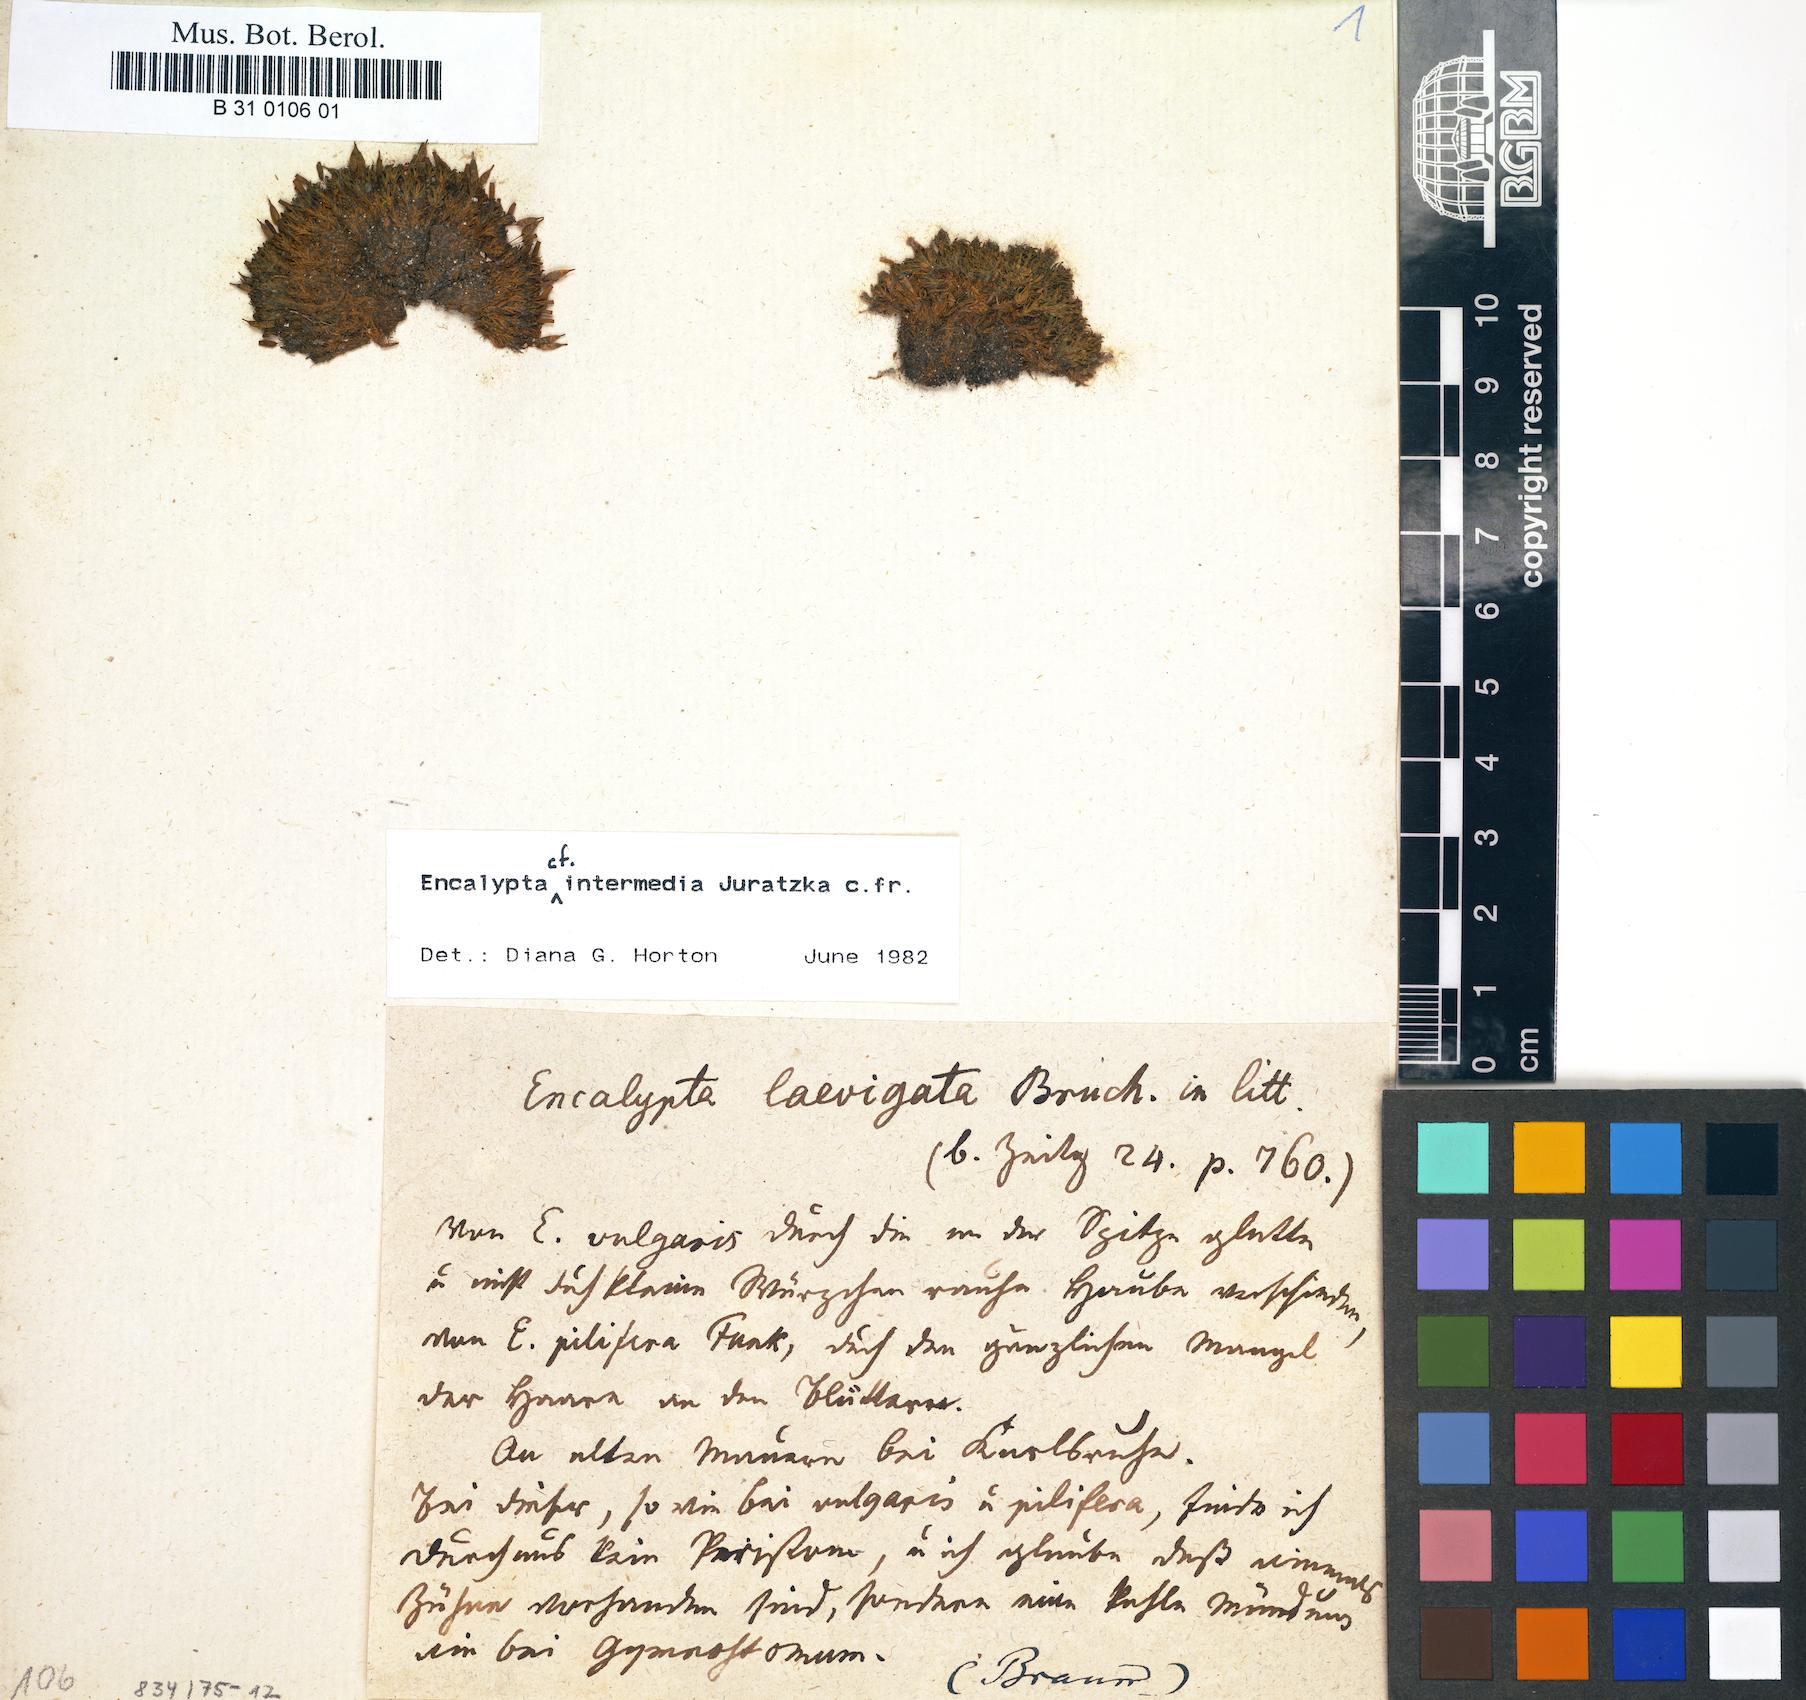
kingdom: Plantae
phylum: Bryophyta
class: Bryopsida
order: Encalyptales
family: Encalyptaceae
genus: Encalypta
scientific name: Encalypta vulgaris
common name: Common extinguisher-moss
